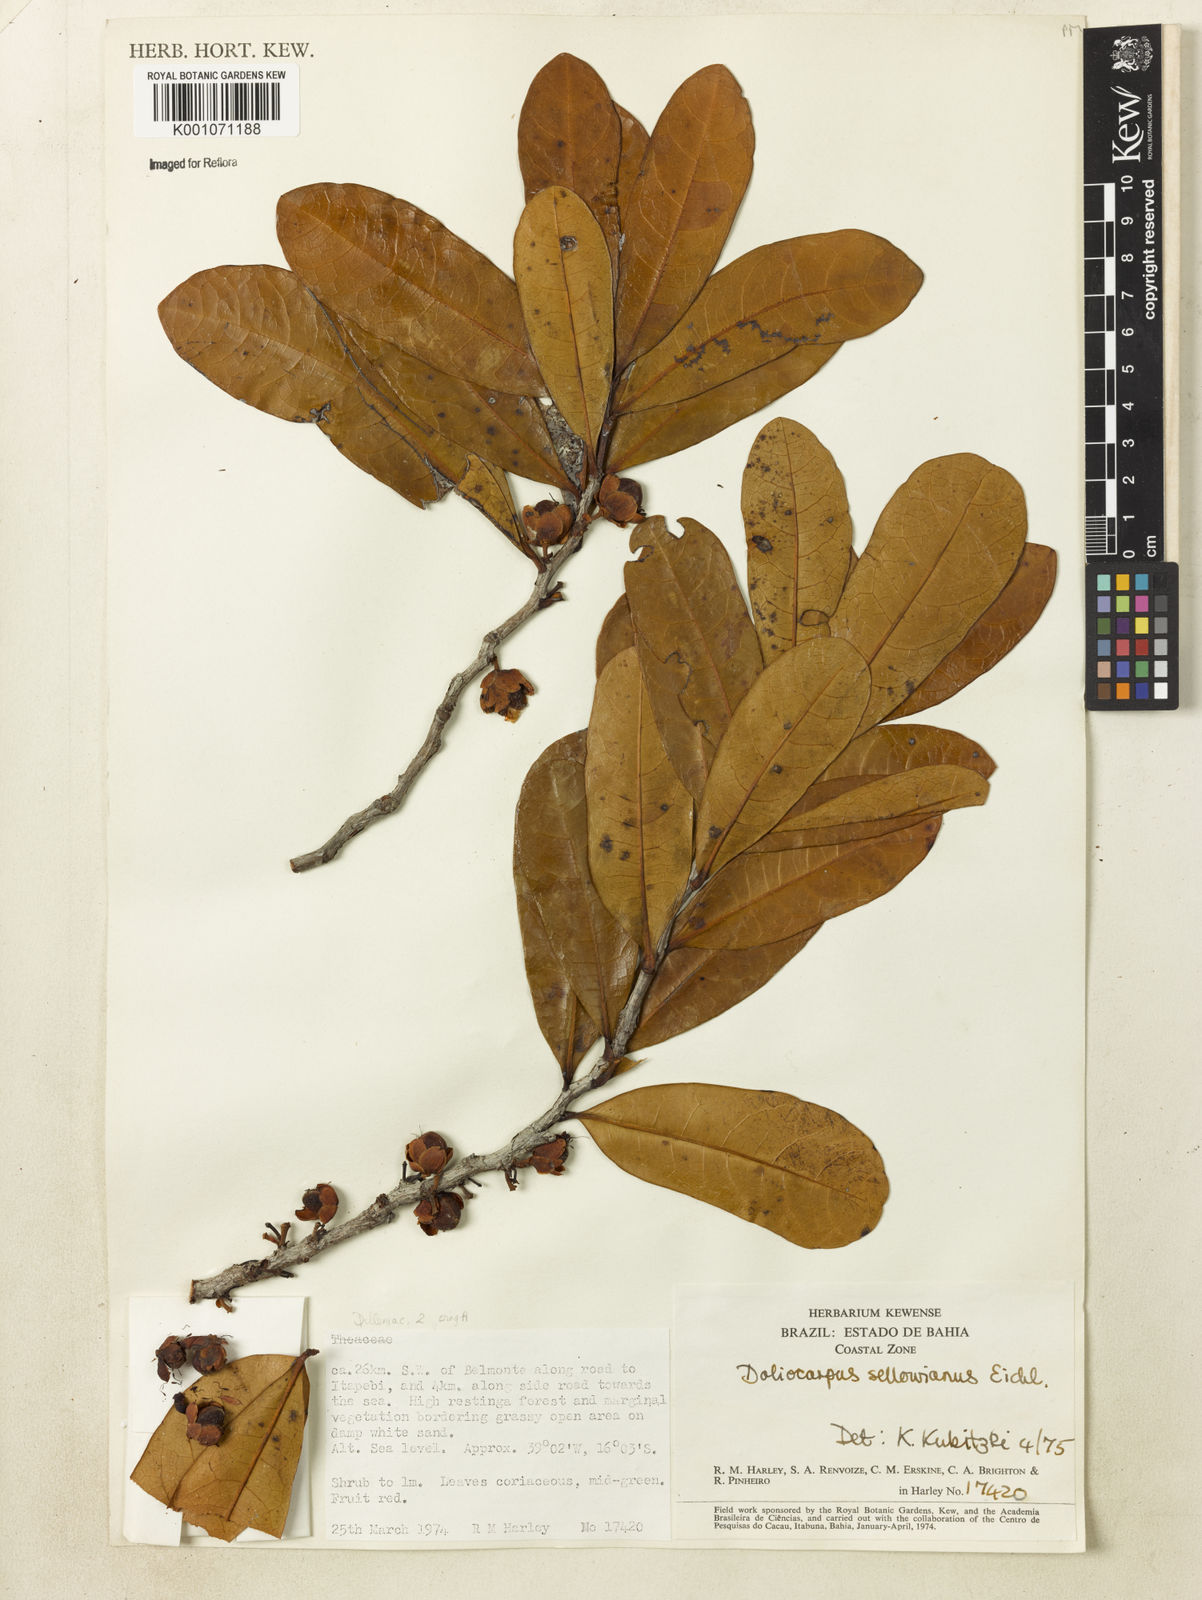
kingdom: Plantae
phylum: Tracheophyta
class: Magnoliopsida
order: Dilleniales
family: Dilleniaceae
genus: Doliocarpus
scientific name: Doliocarpus sellowianus
